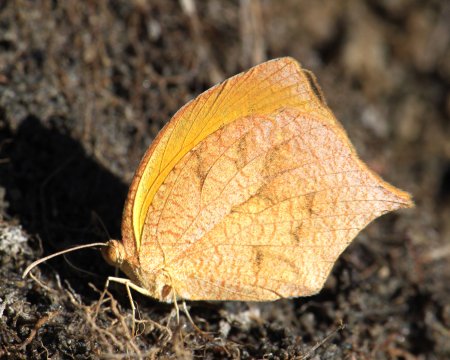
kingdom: Animalia
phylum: Arthropoda
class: Insecta
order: Lepidoptera
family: Pieridae
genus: Pyrisitia
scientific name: Pyrisitia proterpia
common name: Tailed Orange
